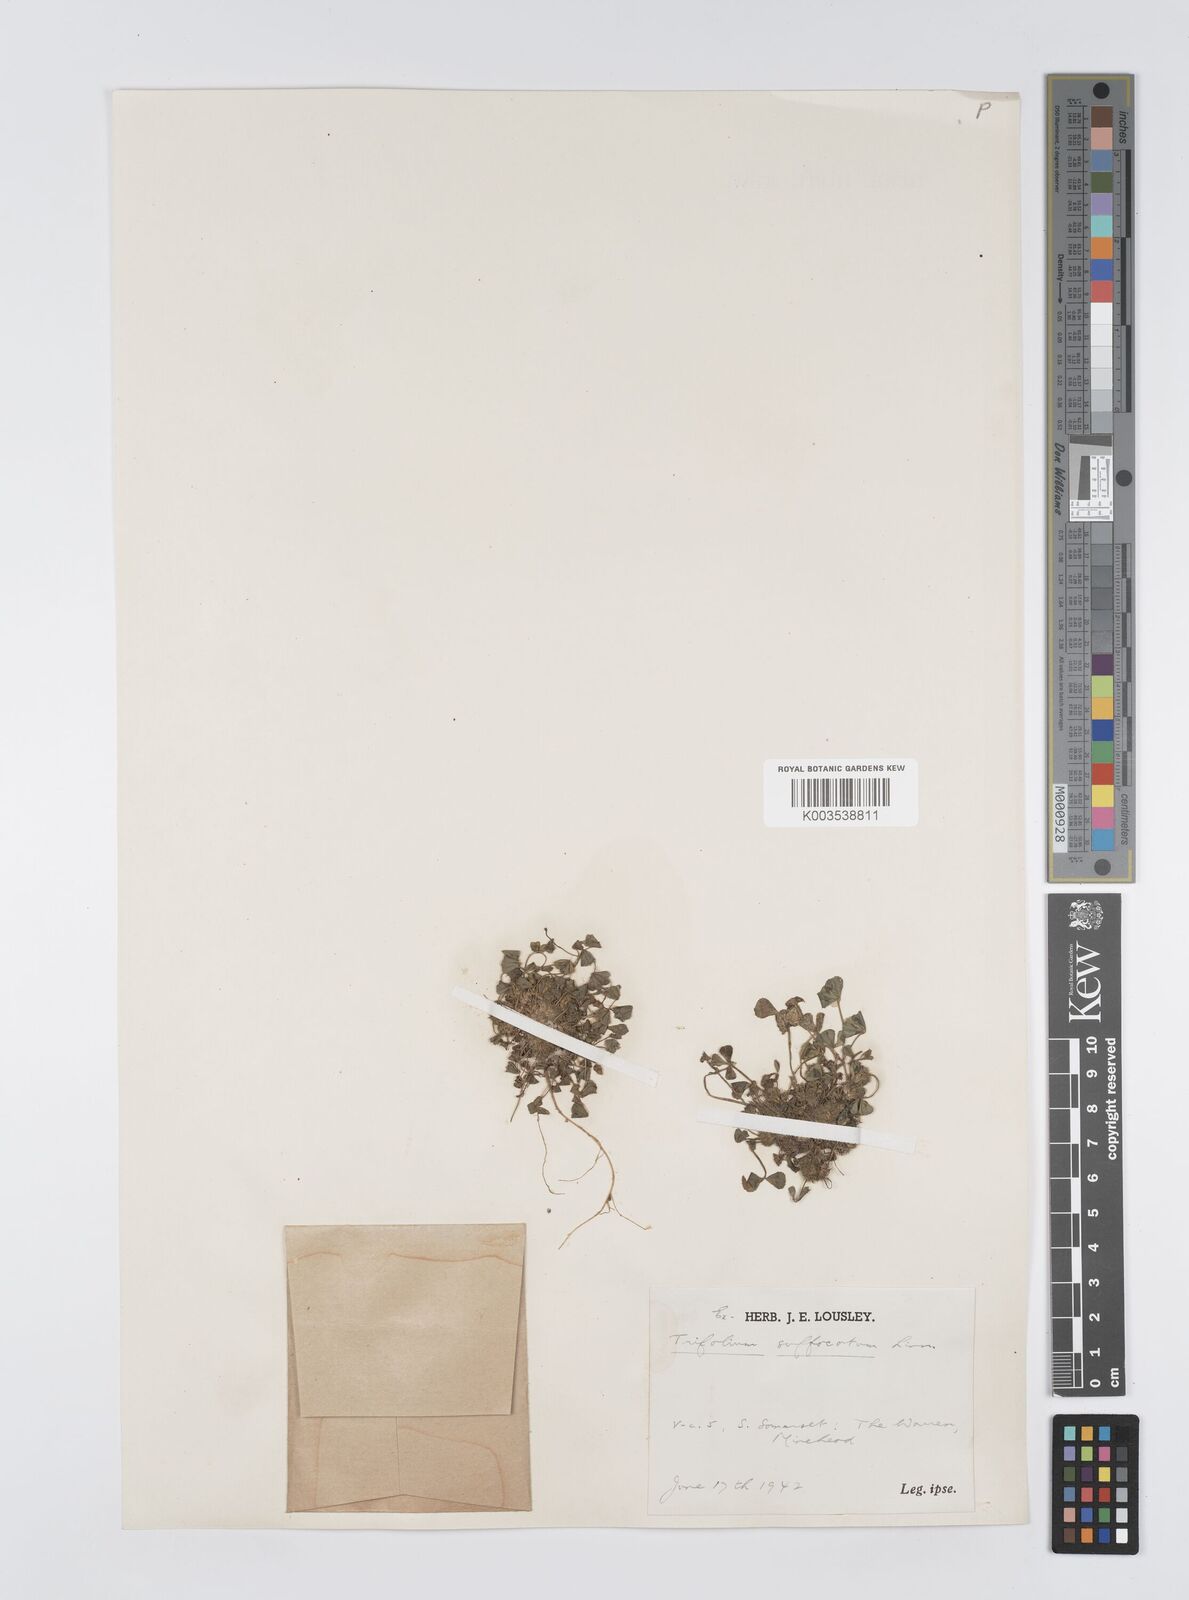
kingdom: Plantae
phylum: Tracheophyta
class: Magnoliopsida
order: Fabales
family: Fabaceae
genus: Trifolium
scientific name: Trifolium suffocatum
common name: Suffocated clover
